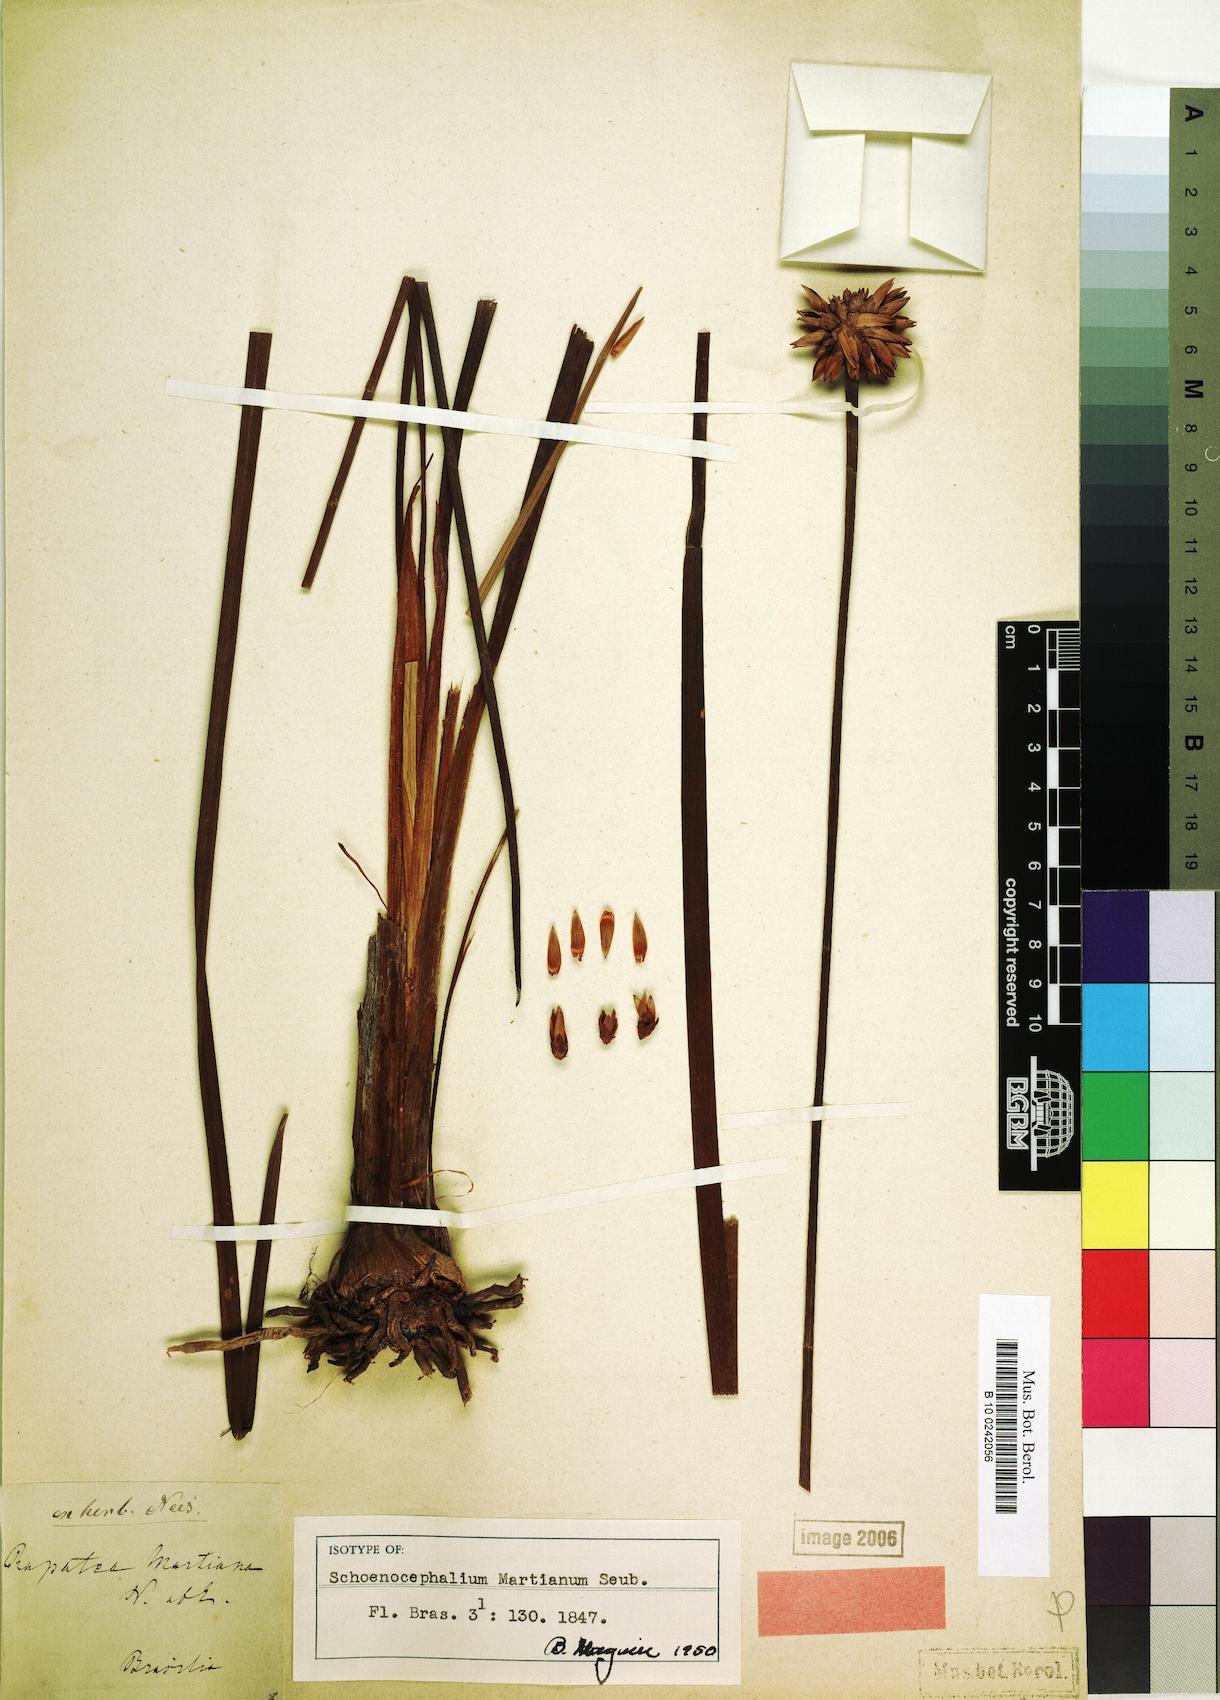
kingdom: Plantae
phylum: Tracheophyta
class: Liliopsida
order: Poales
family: Rapateaceae
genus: Schoenocephalium
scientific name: Schoenocephalium martianum
